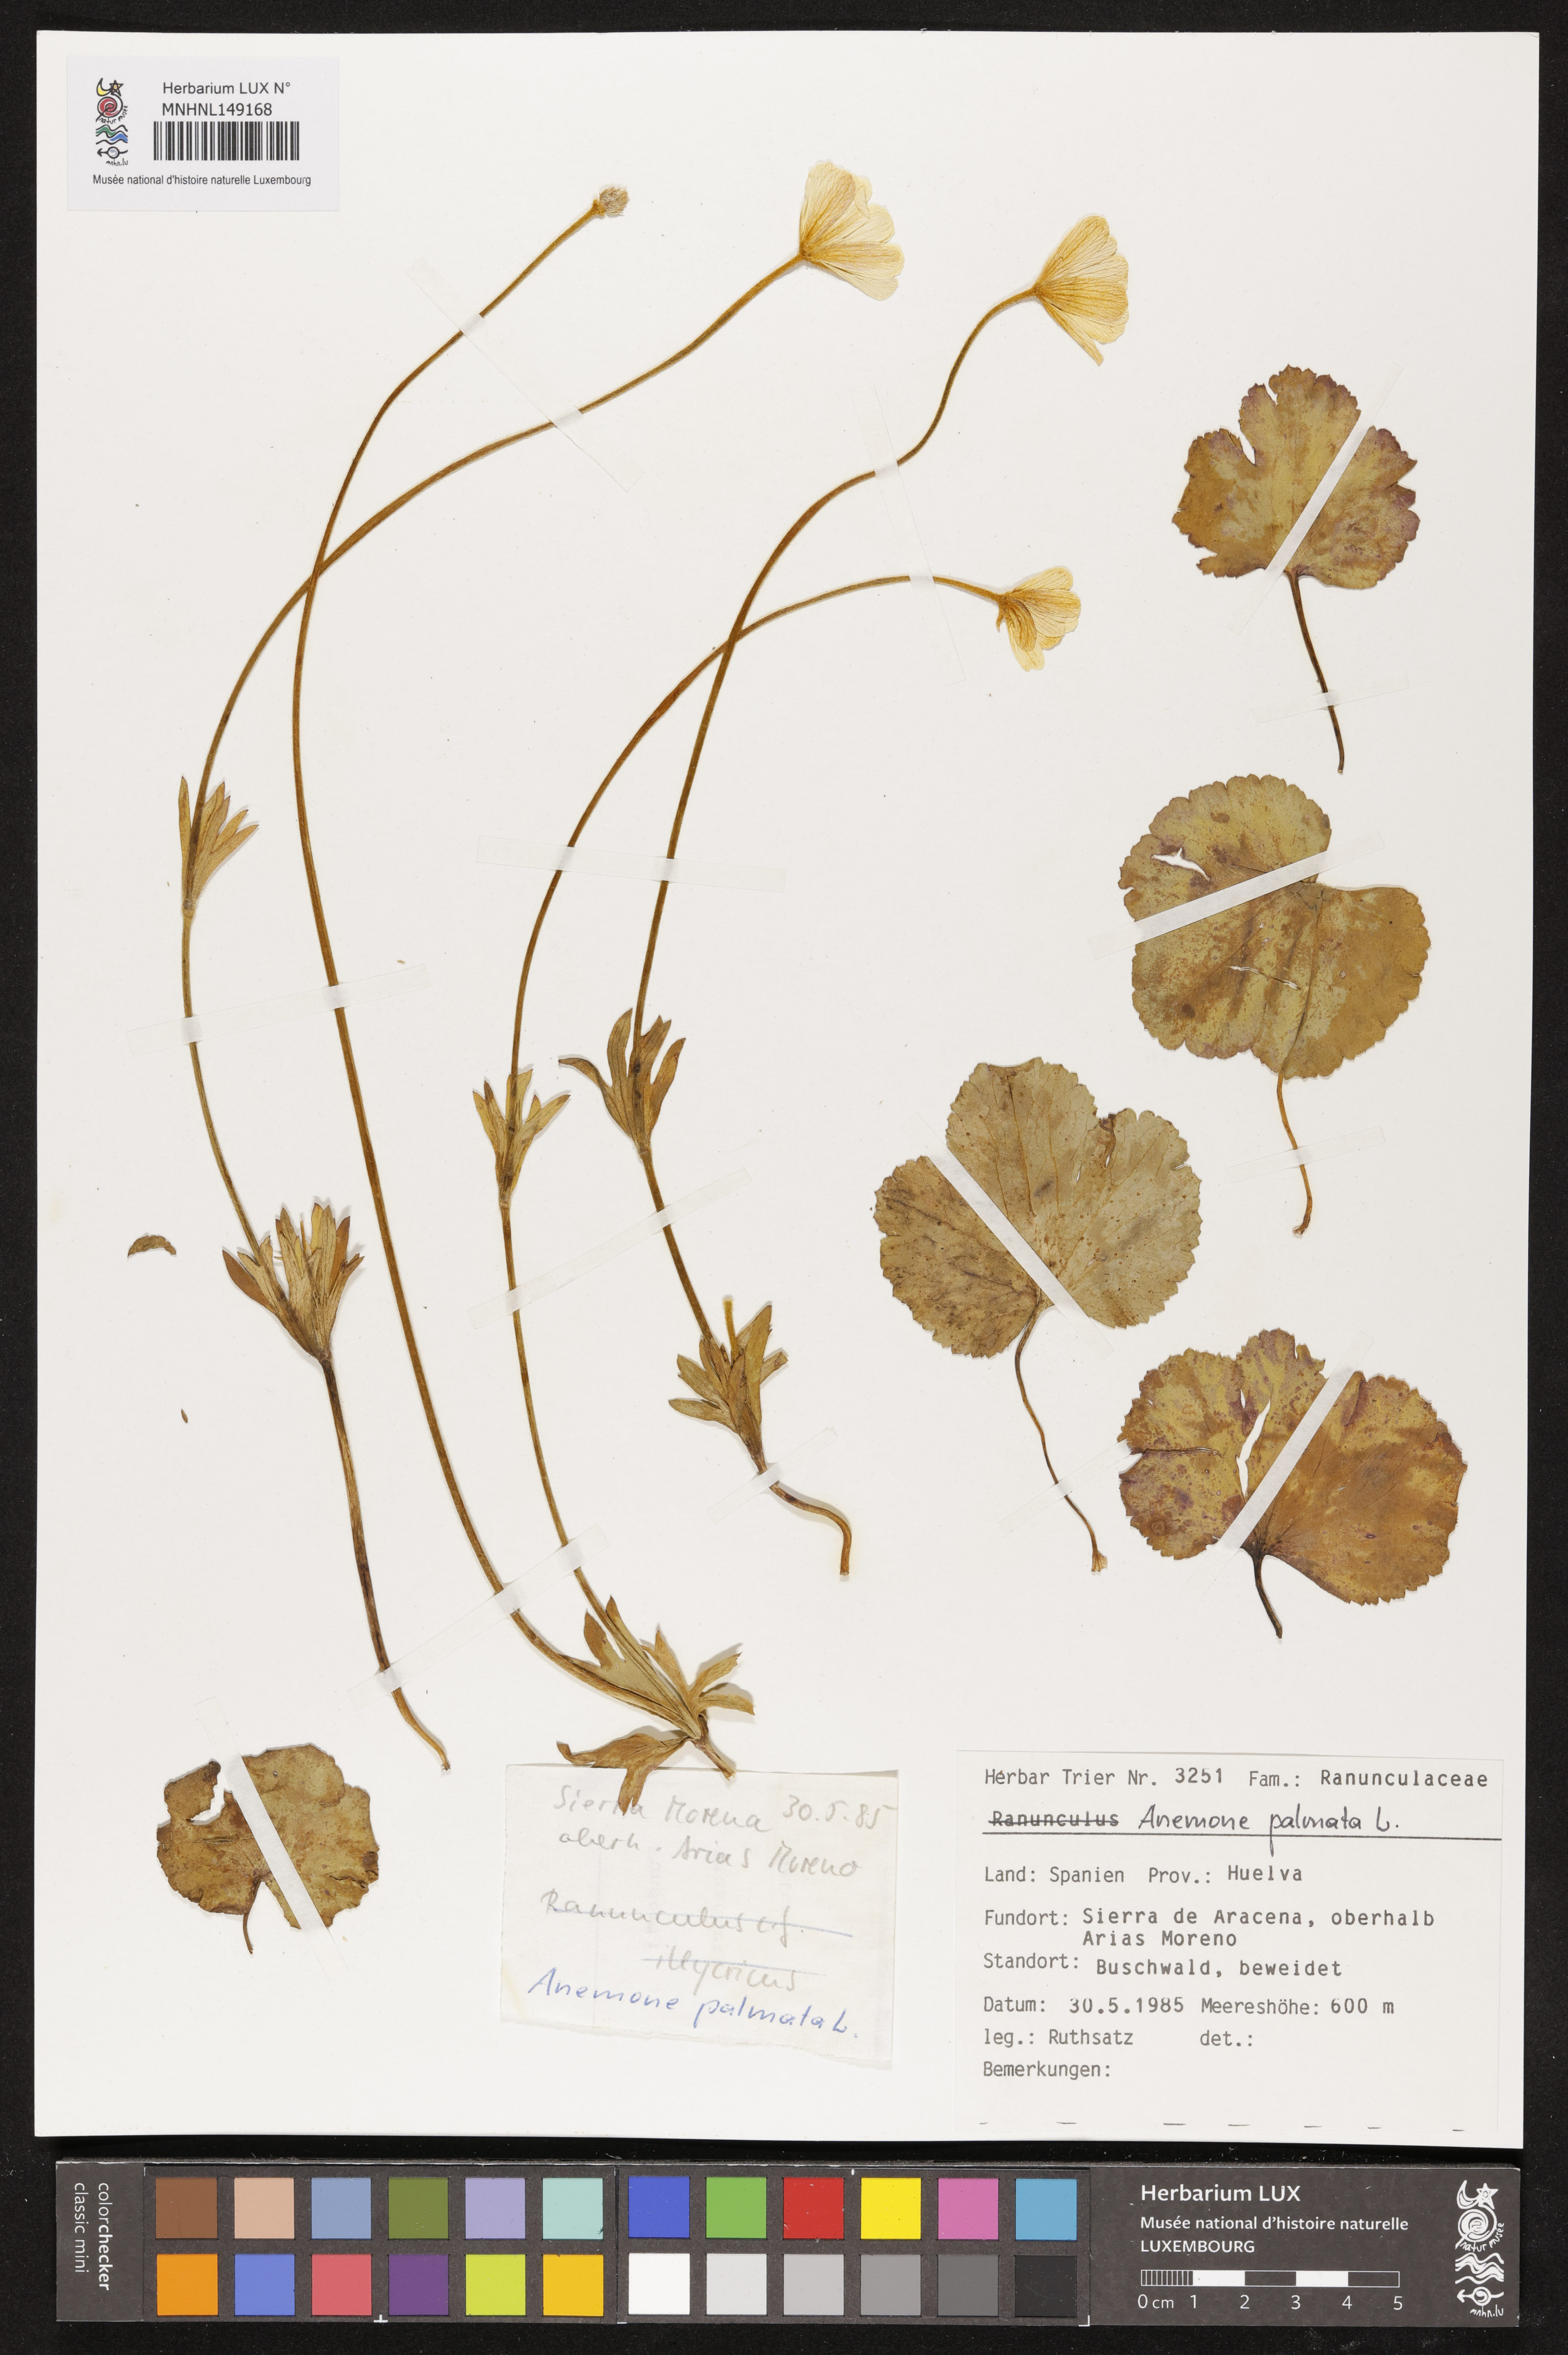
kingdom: Plantae
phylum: Tracheophyta
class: Magnoliopsida
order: Ranunculales
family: Ranunculaceae
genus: Anemone
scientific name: Anemone palmata
